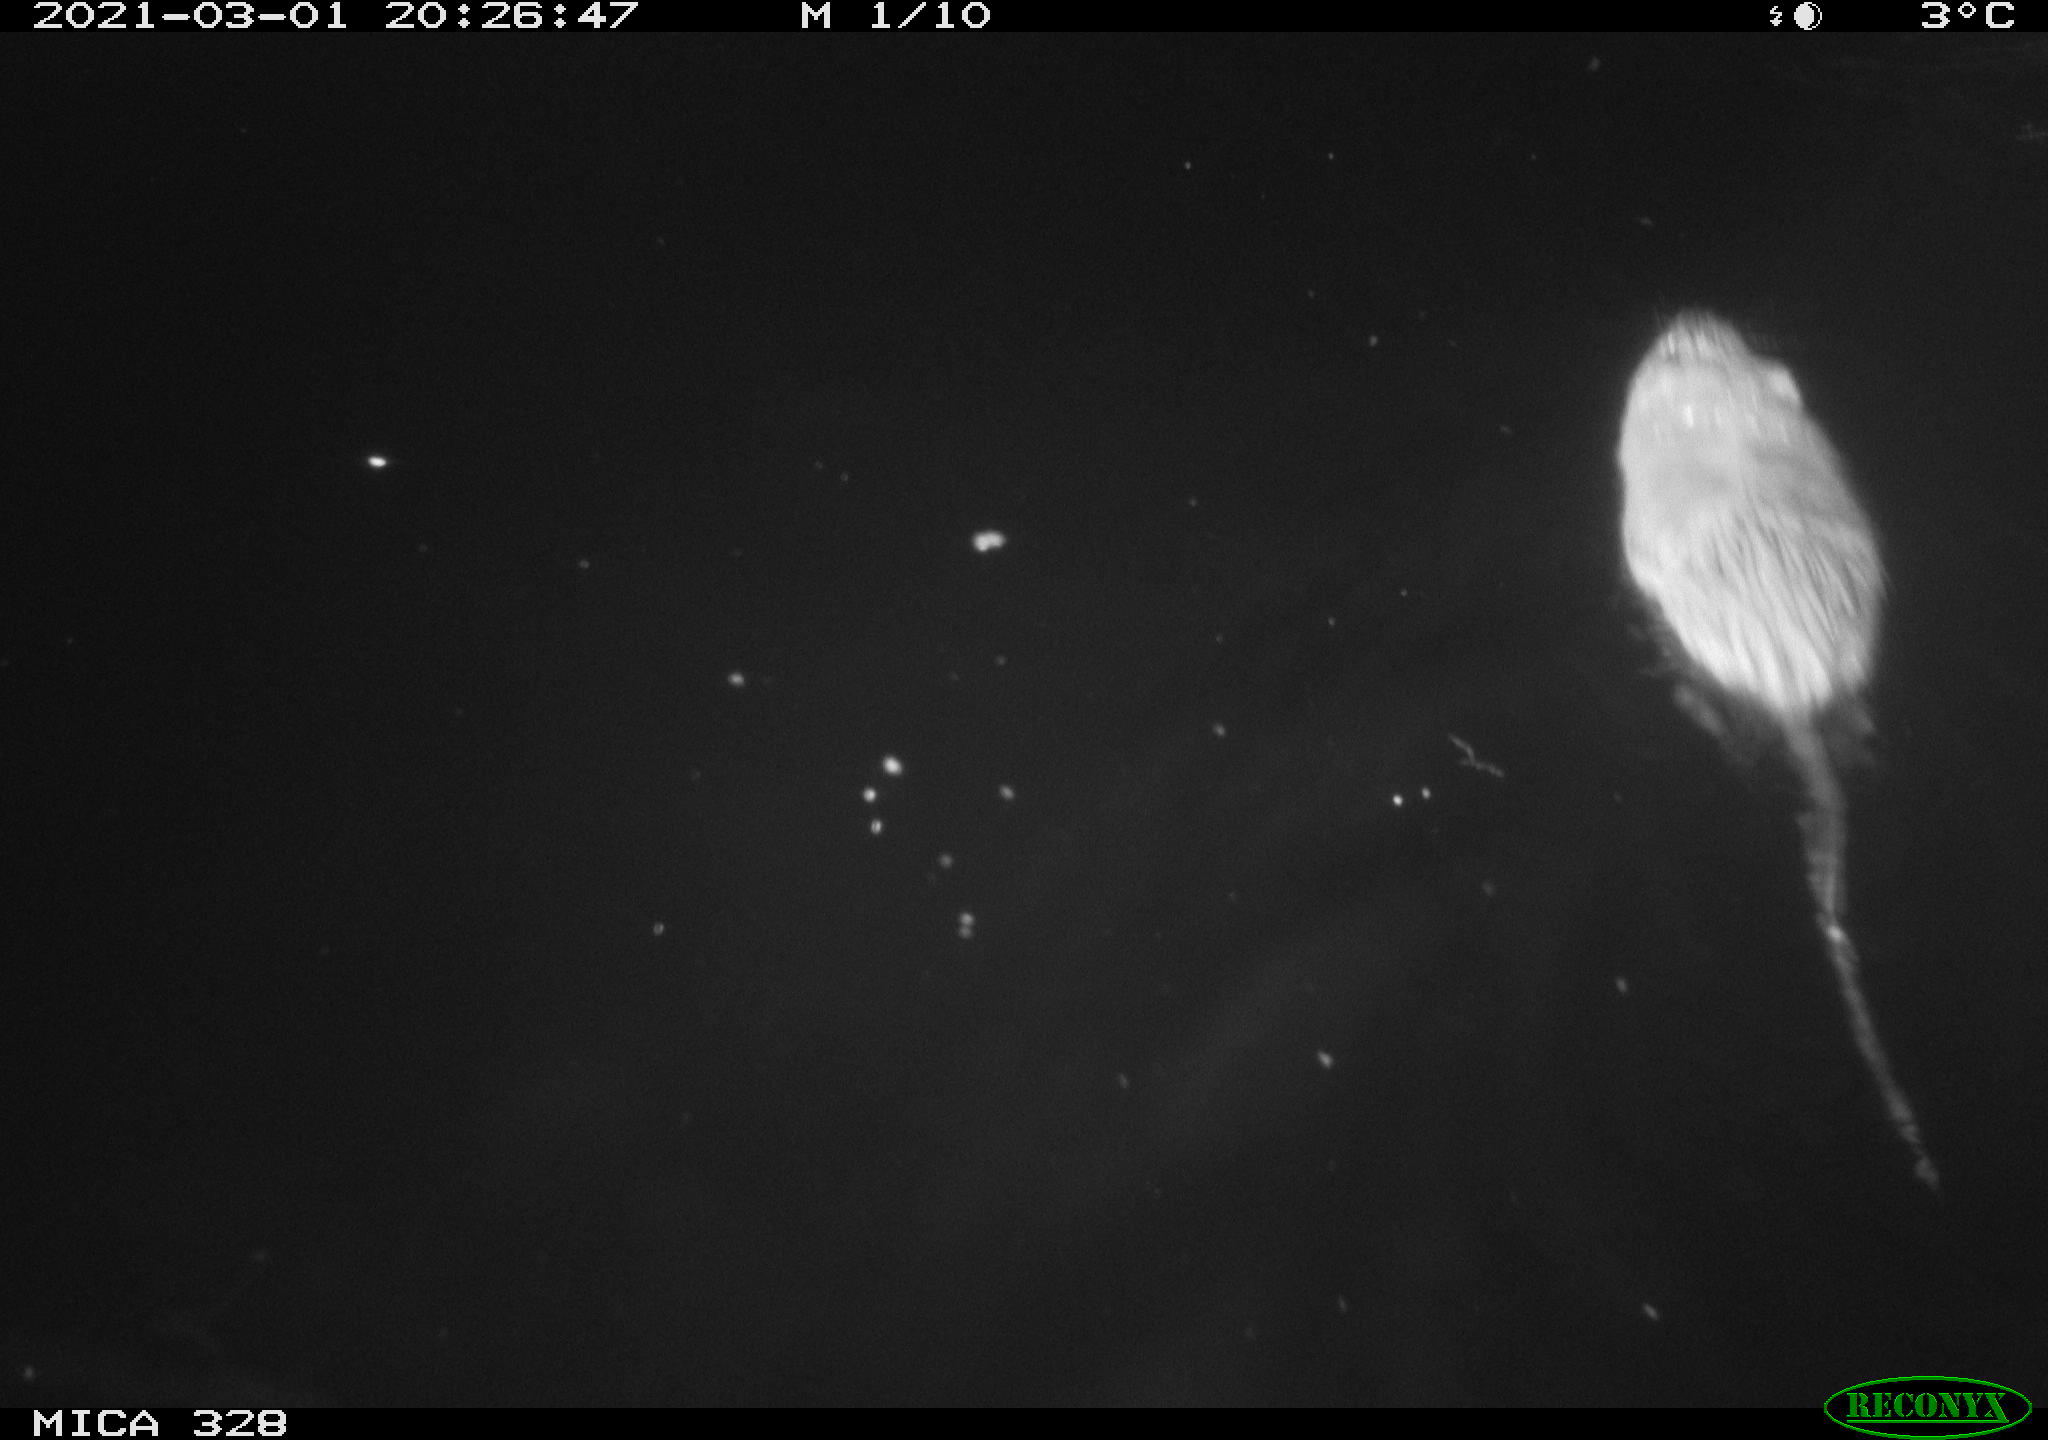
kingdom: Animalia
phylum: Chordata
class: Mammalia
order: Rodentia
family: Cricetidae
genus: Ondatra
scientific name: Ondatra zibethicus
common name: Muskrat
